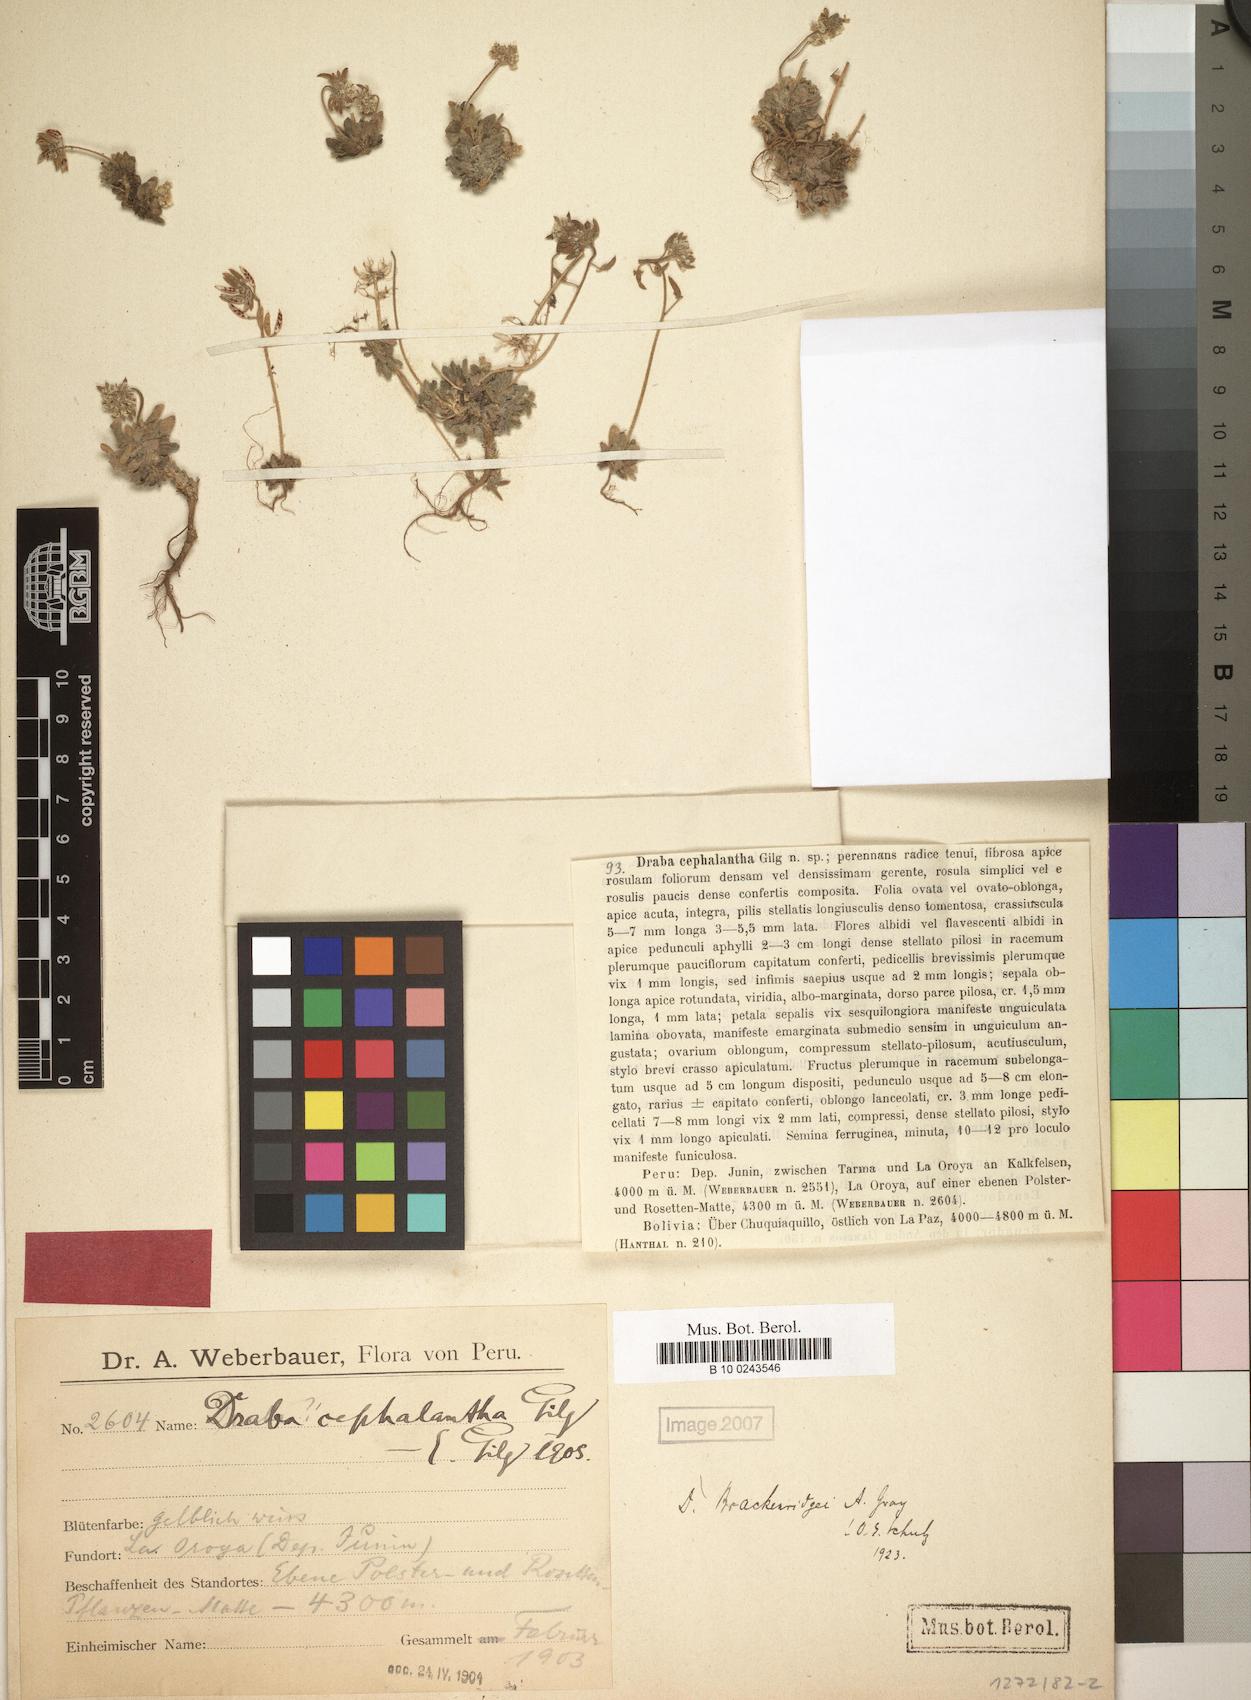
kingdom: Plantae
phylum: Tracheophyta
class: Magnoliopsida
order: Brassicales
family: Brassicaceae
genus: Draba
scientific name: Draba brackenridgei
